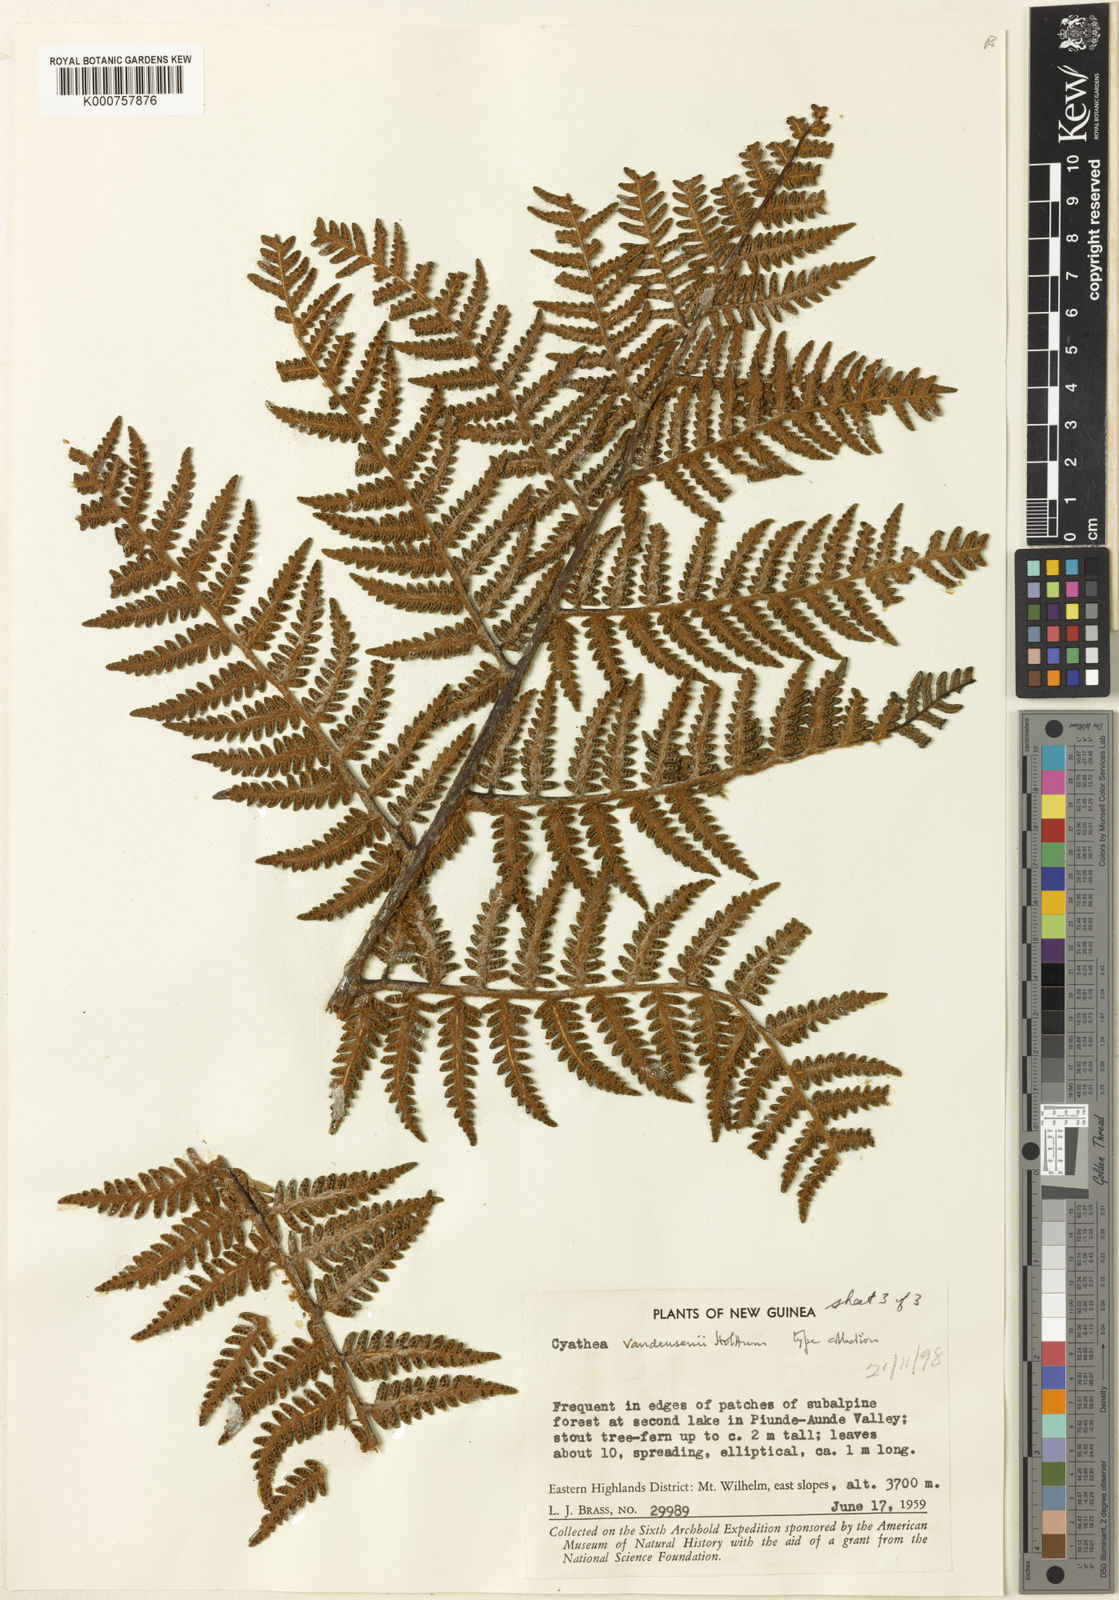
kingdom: Plantae
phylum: Tracheophyta
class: Polypodiopsida
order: Cyatheales
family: Cyatheaceae
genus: Alsophila
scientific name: Alsophila vandeusenii
